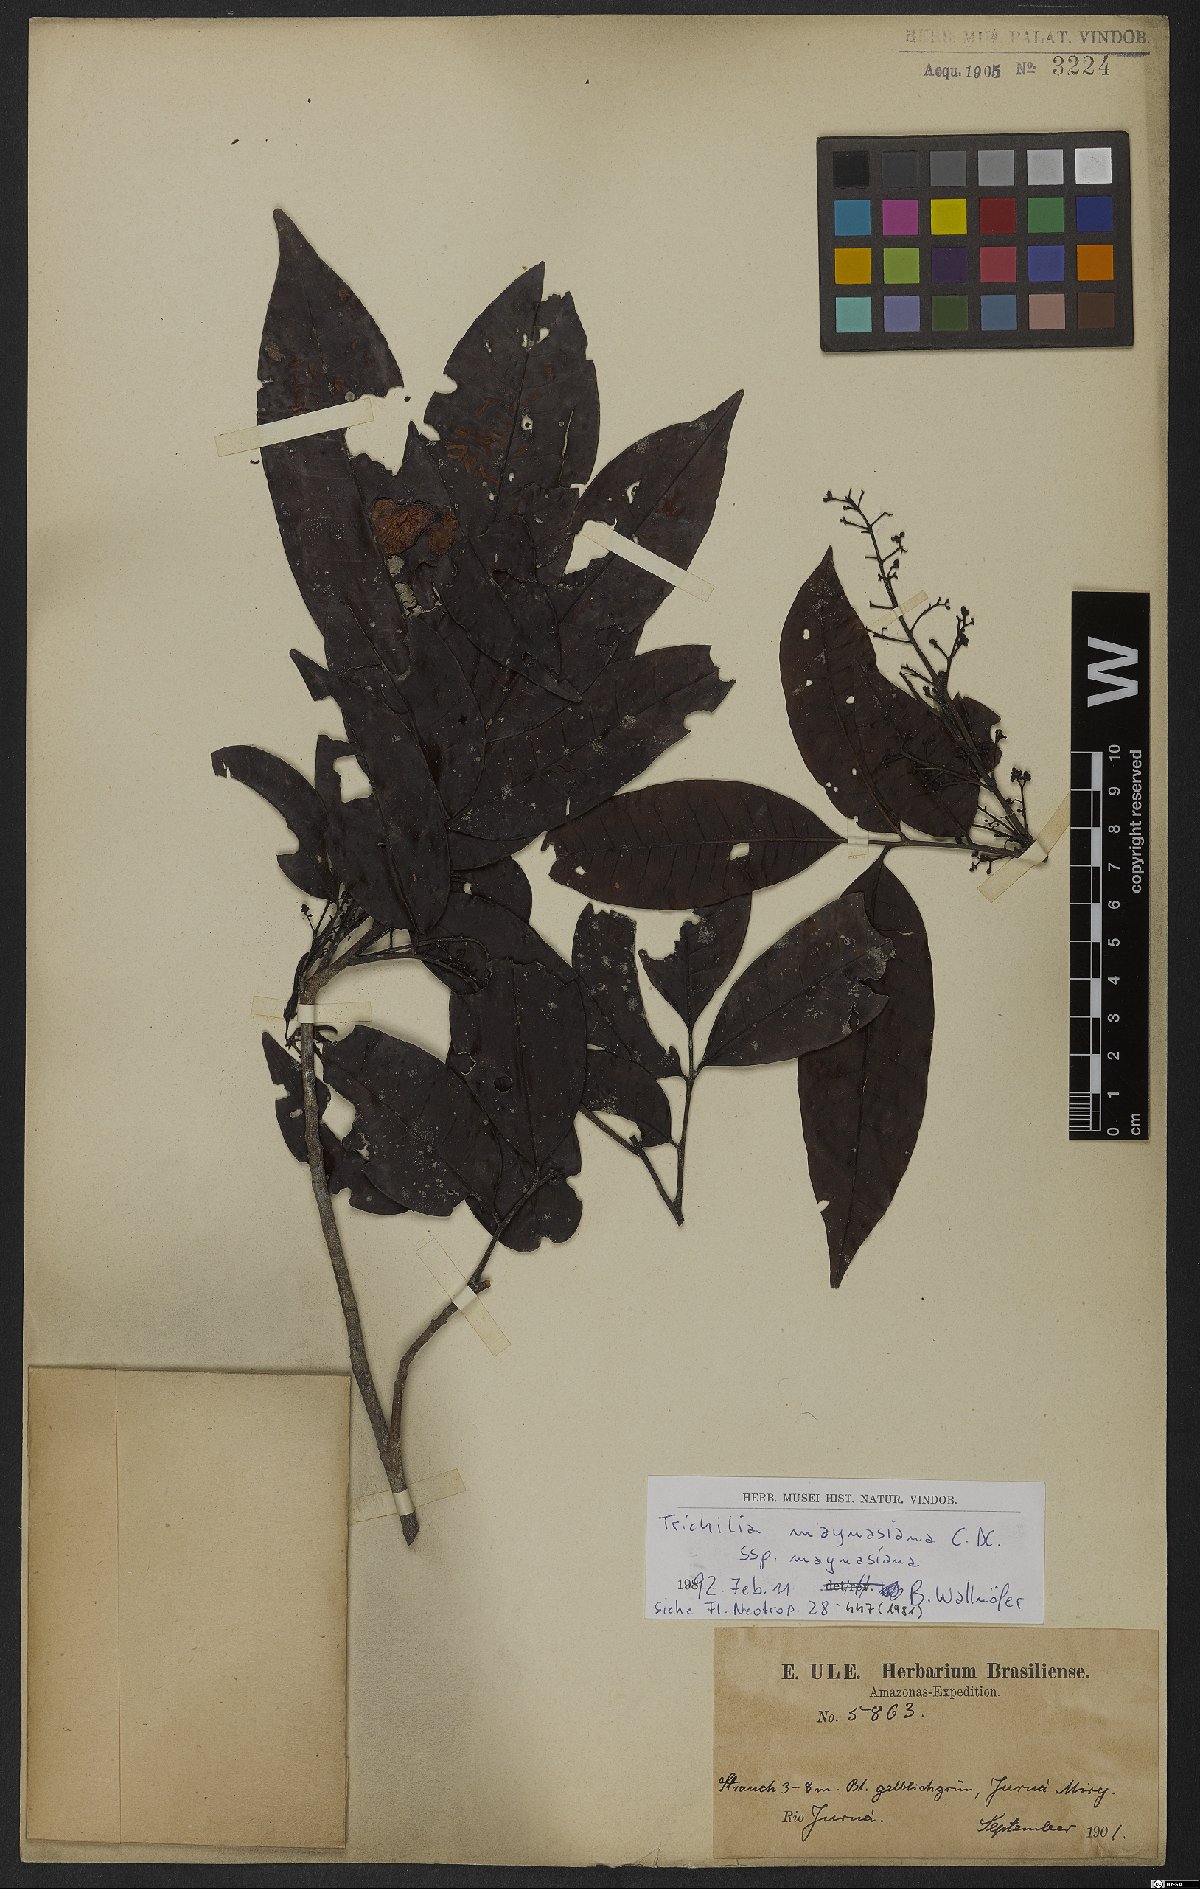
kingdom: Plantae
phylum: Tracheophyta
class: Magnoliopsida
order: Sapindales
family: Meliaceae
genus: Trichilia
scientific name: Trichilia maynasiana
